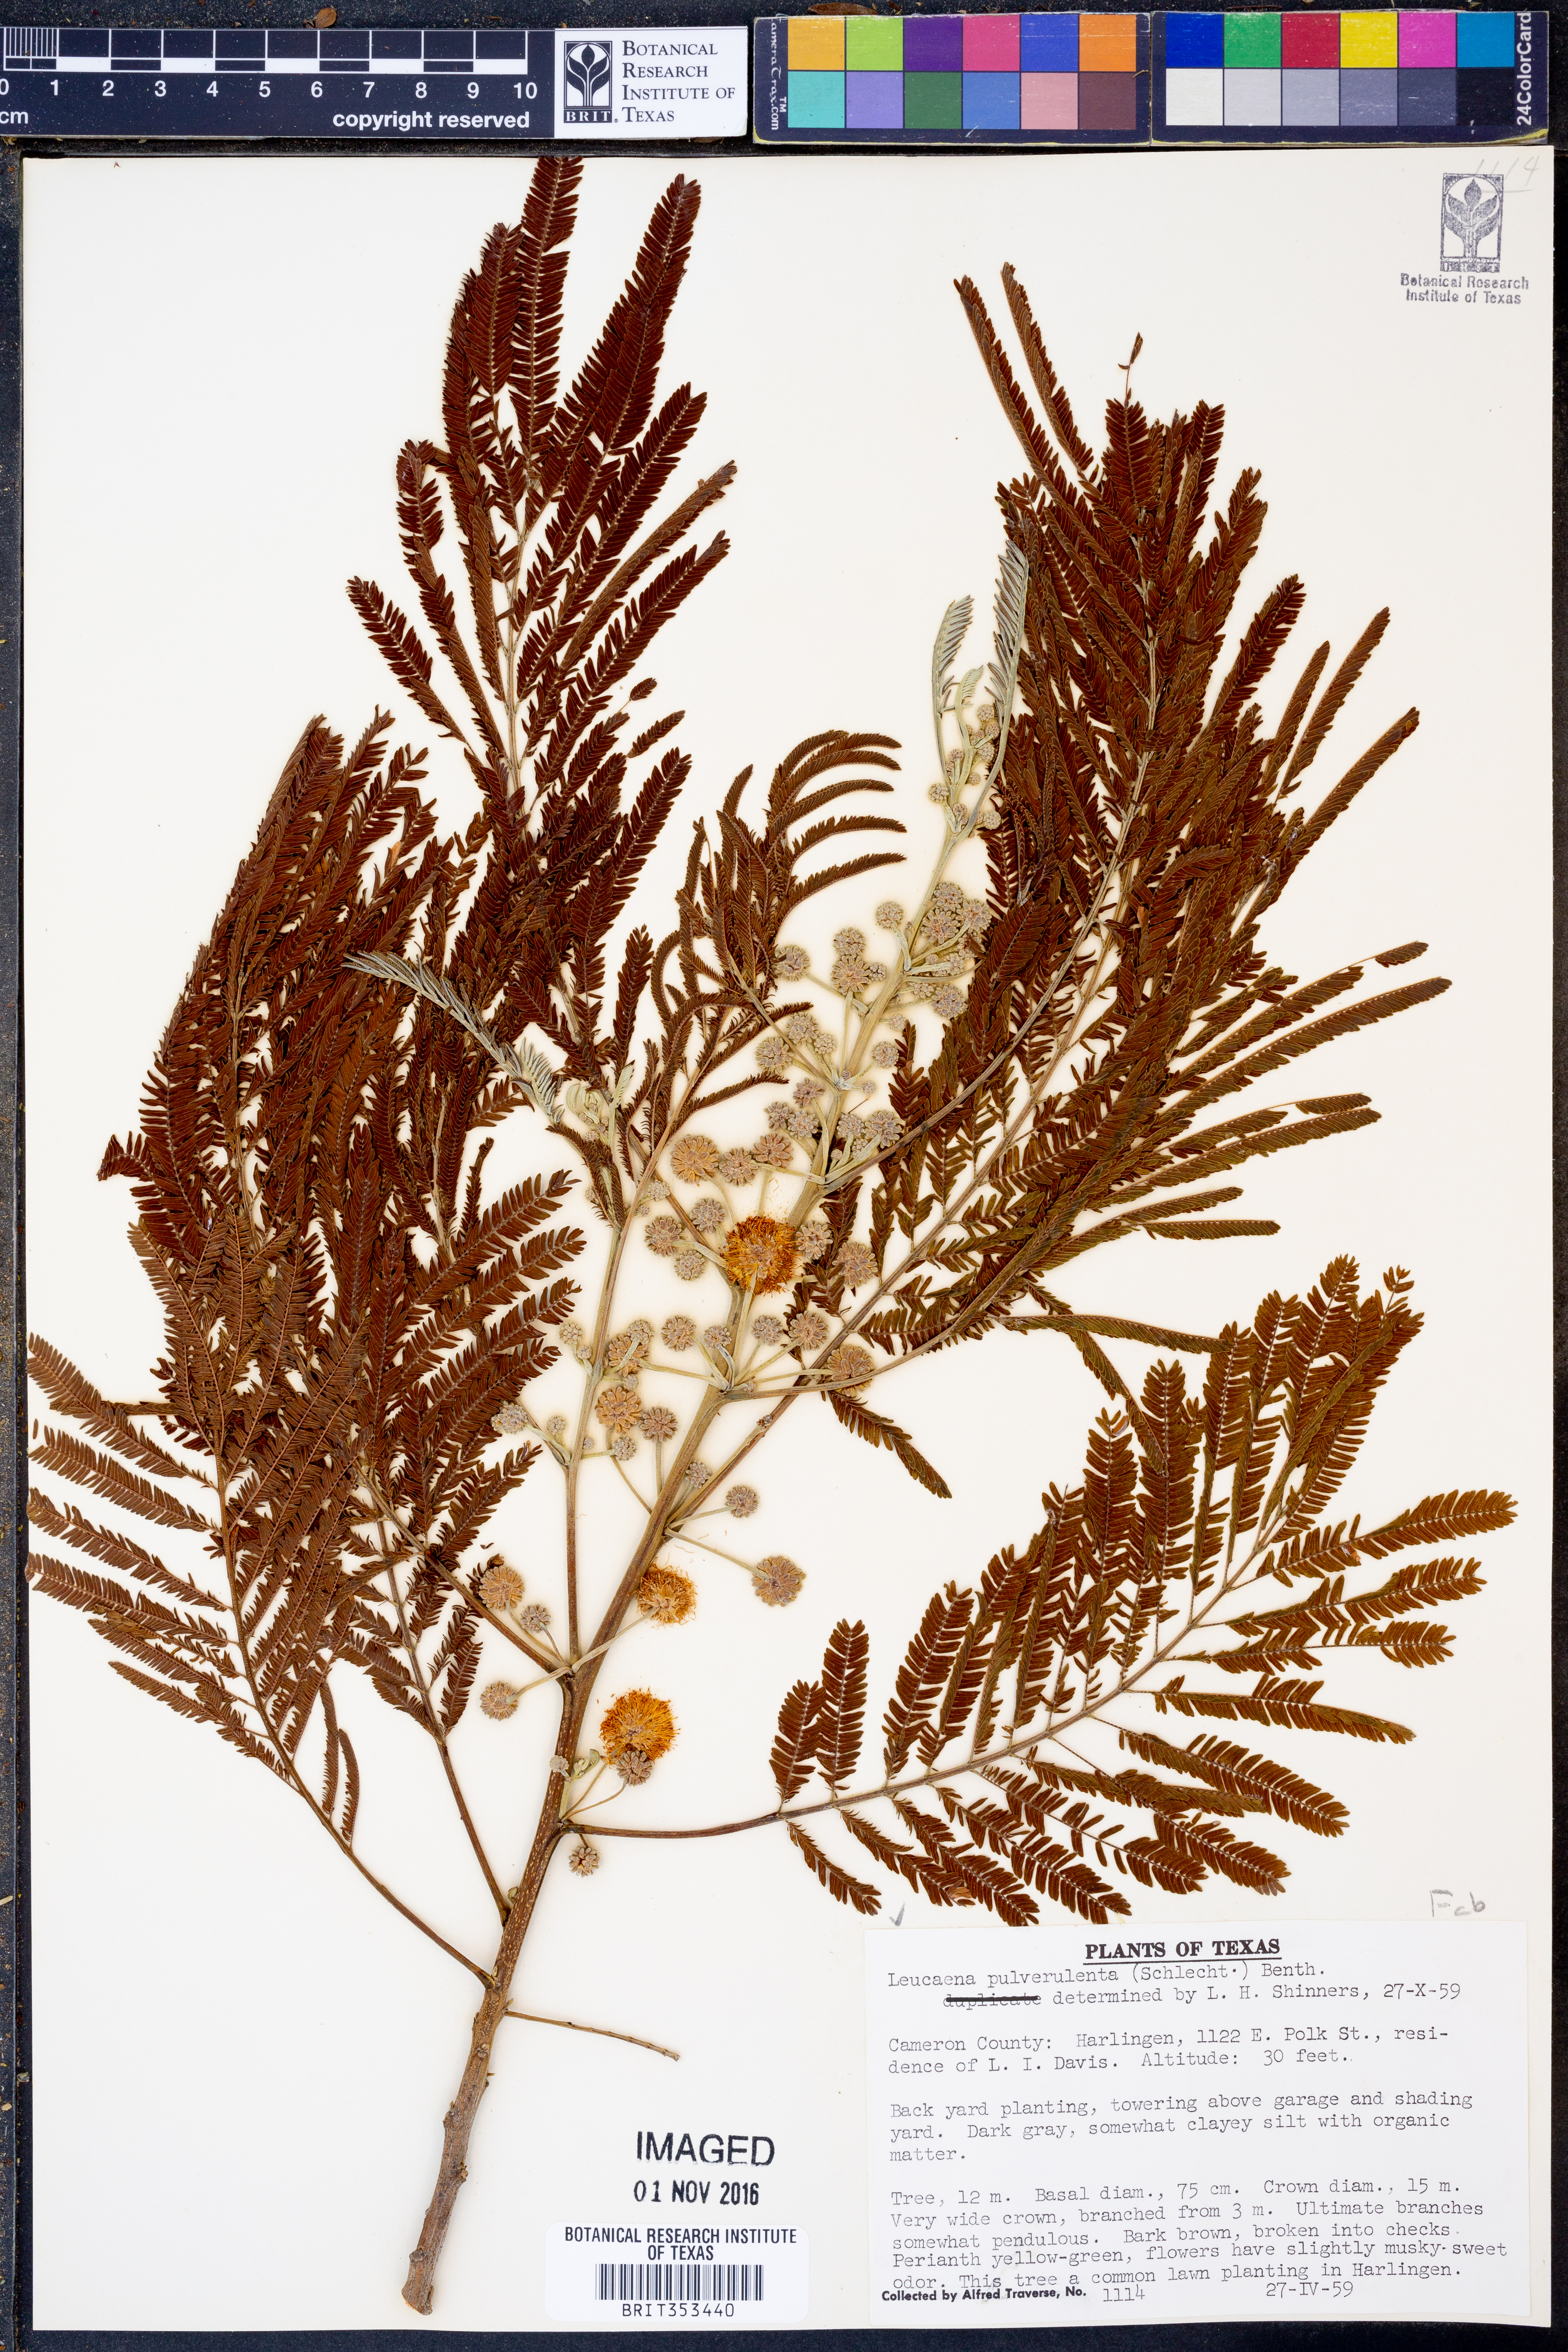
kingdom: Plantae
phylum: Tracheophyta
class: Magnoliopsida
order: Fabales
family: Fabaceae
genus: Leucaena
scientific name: Leucaena pulverulenta
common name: Great leadtree
